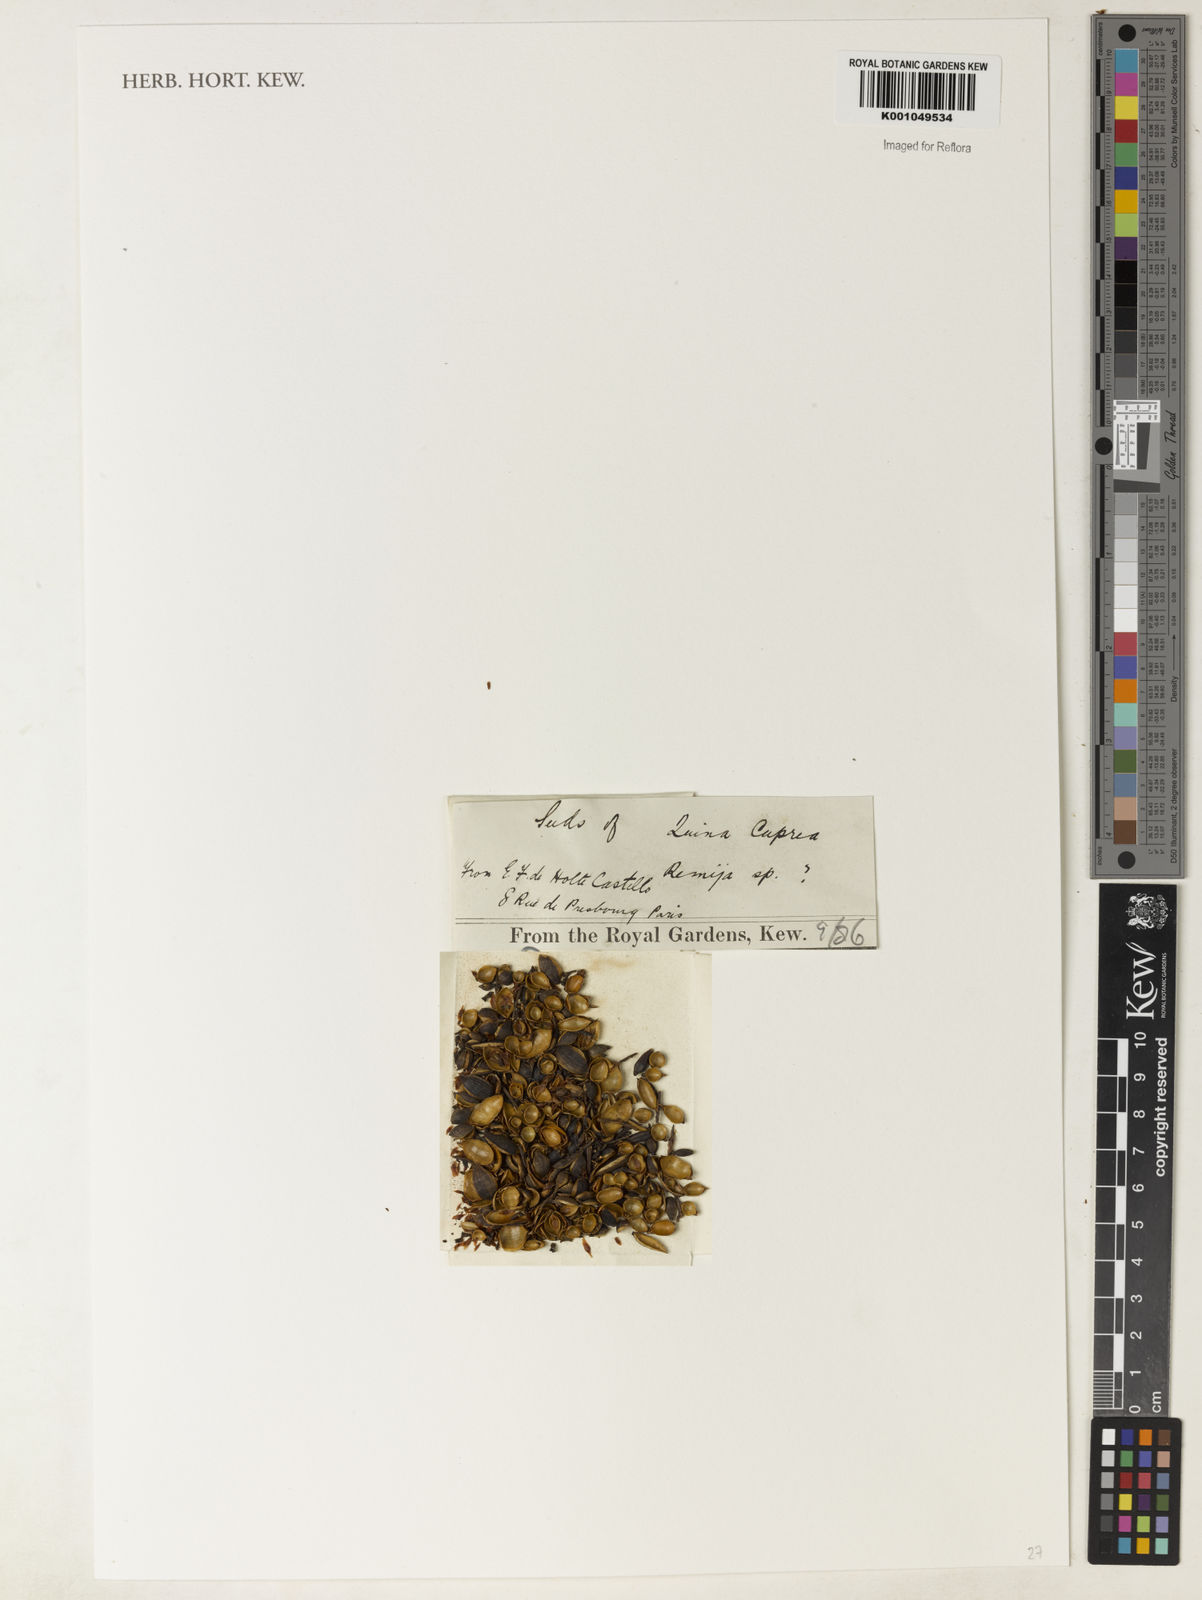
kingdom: Plantae
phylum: Tracheophyta
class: Magnoliopsida
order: Gentianales
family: Rubiaceae
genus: Remijia
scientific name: Remijia
